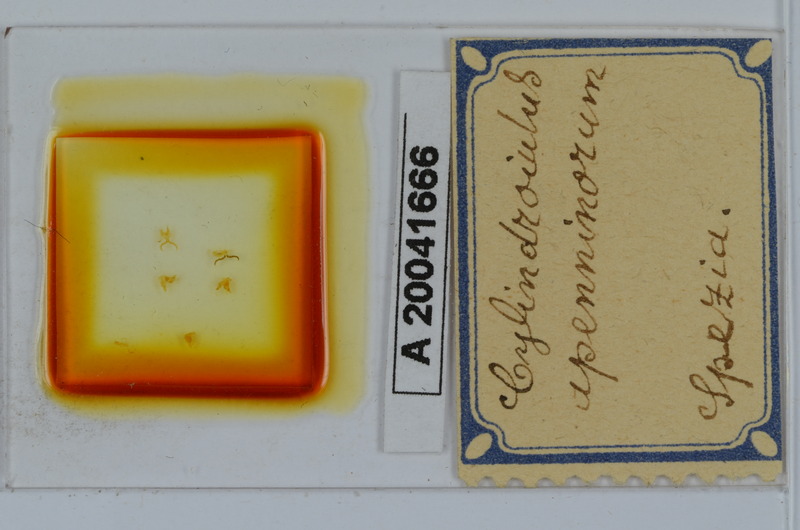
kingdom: Animalia
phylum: Arthropoda
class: Diplopoda
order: Julida
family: Julidae
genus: Cylindroiulus
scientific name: Cylindroiulus apenninorum
